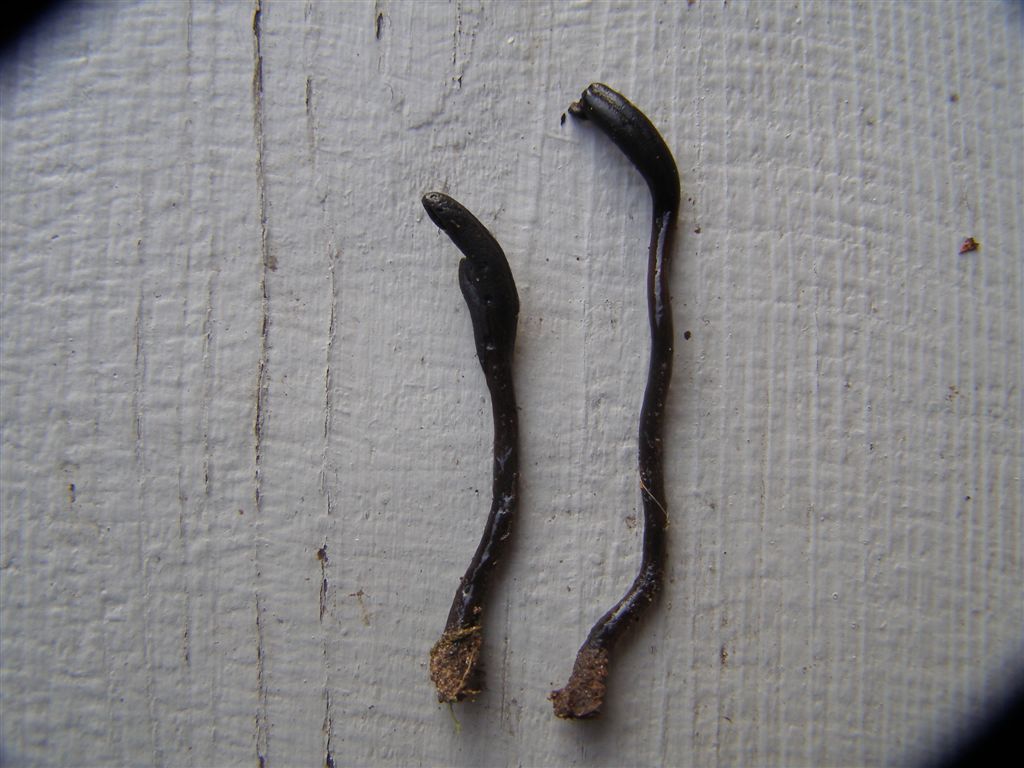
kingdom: Fungi
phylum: Ascomycota
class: Geoglossomycetes
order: Geoglossales
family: Geoglossaceae
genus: Glutinoglossum
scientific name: Glutinoglossum glutinosum
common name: slimet jordtunge
